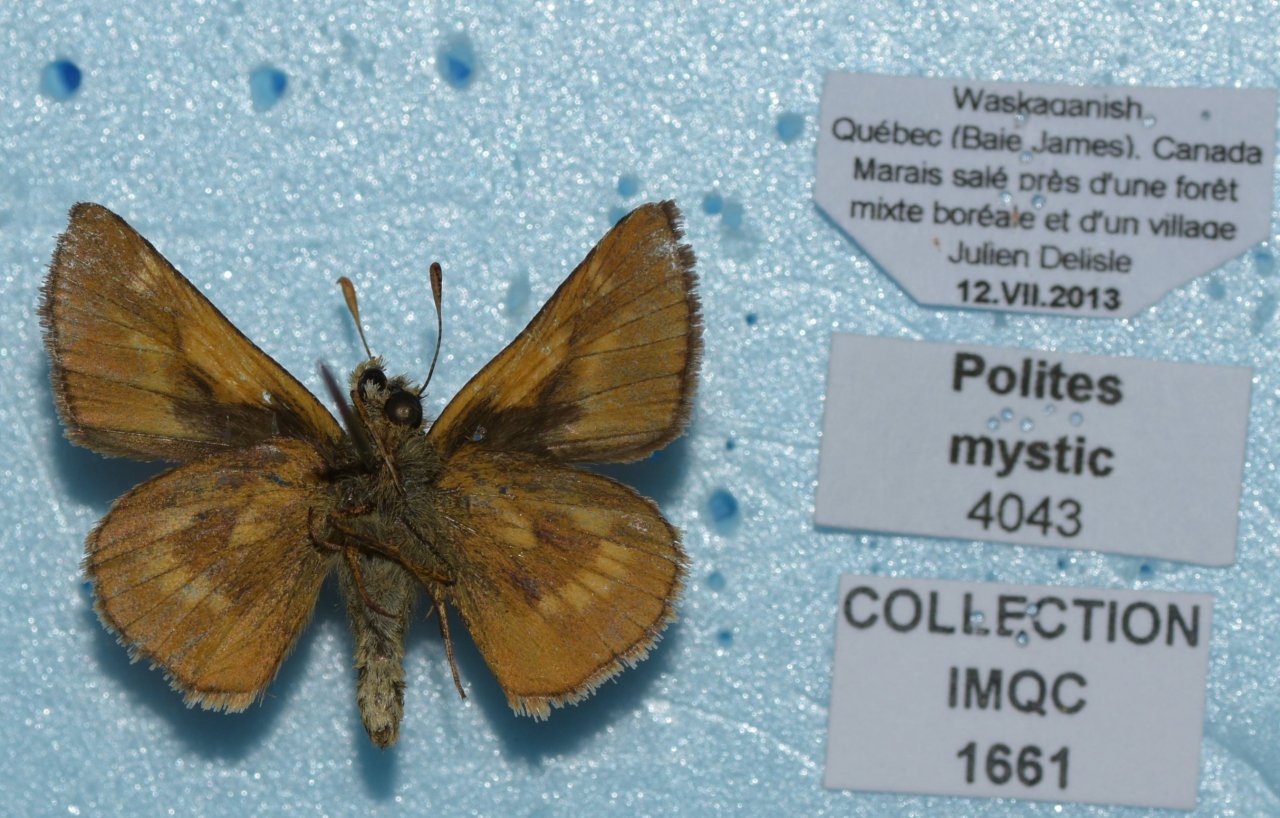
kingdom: Animalia
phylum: Arthropoda
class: Insecta
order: Lepidoptera
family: Hesperiidae
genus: Polites
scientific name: Polites
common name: Long Dash Skipper
